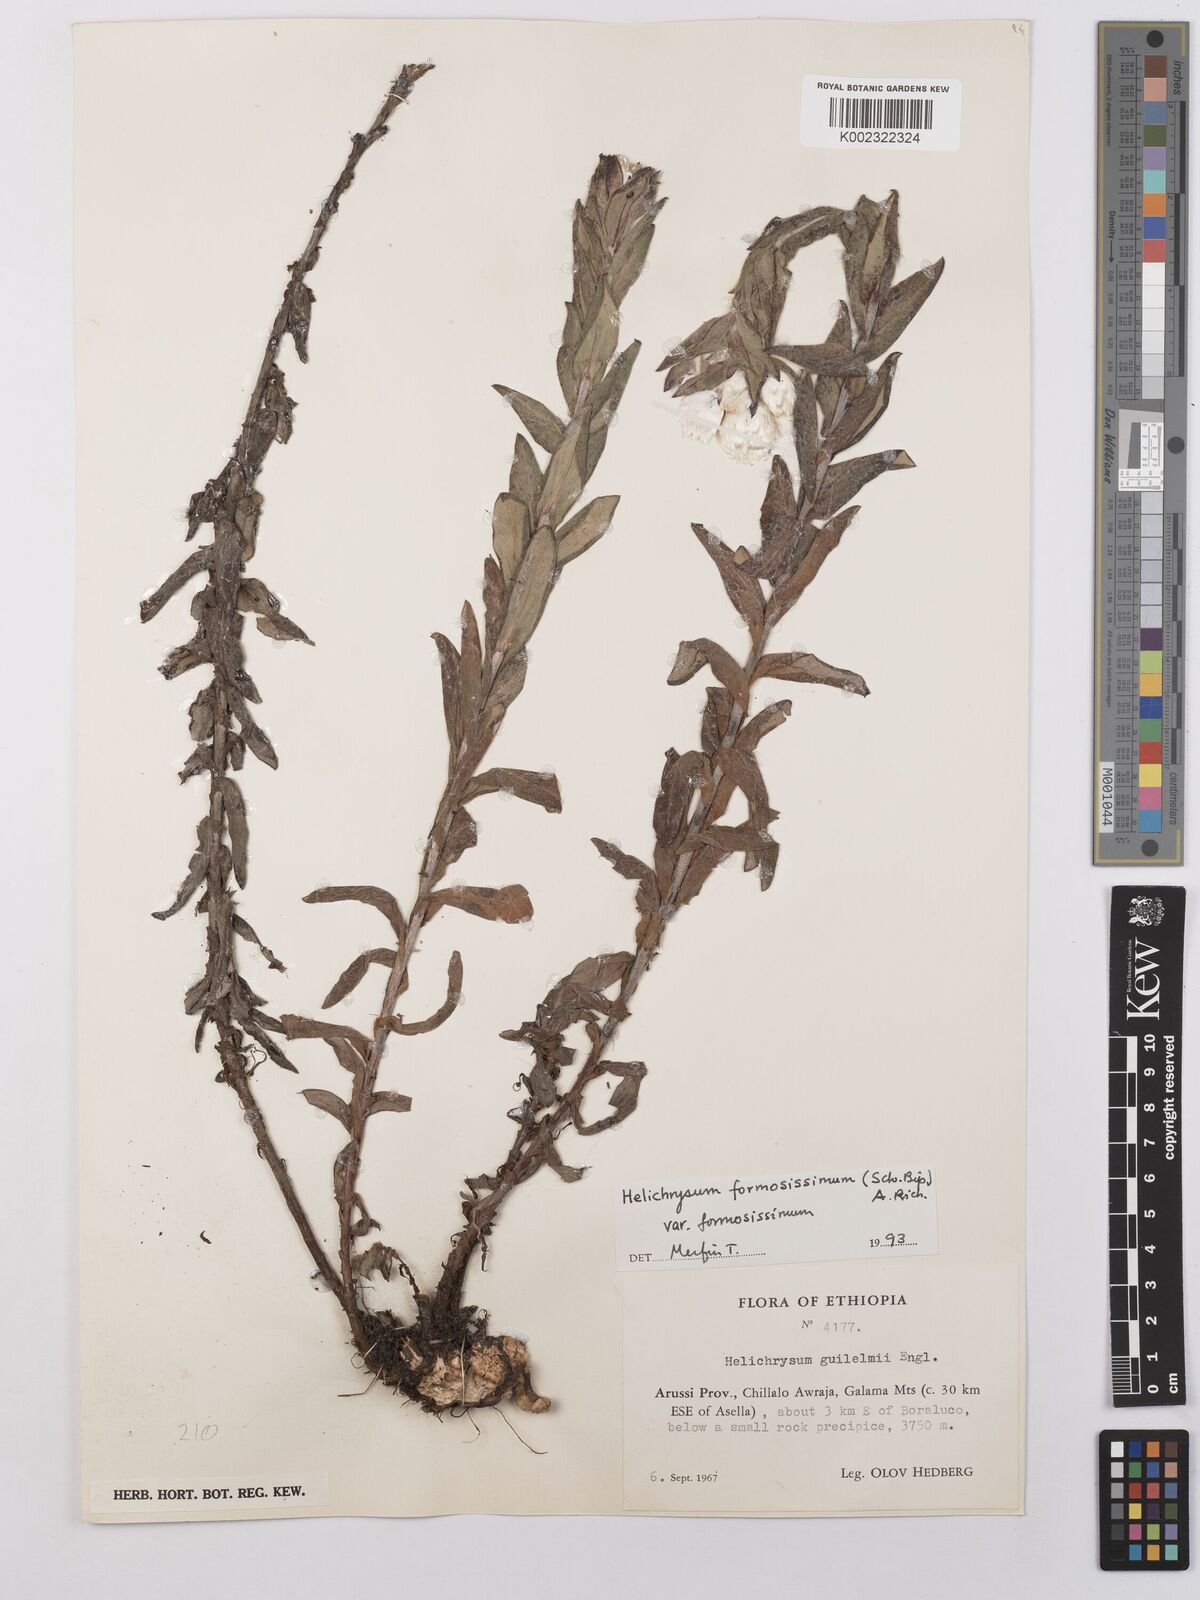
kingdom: Plantae
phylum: Tracheophyta
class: Magnoliopsida
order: Asterales
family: Asteraceae
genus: Helichrysum
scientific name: Helichrysum formosissimum
